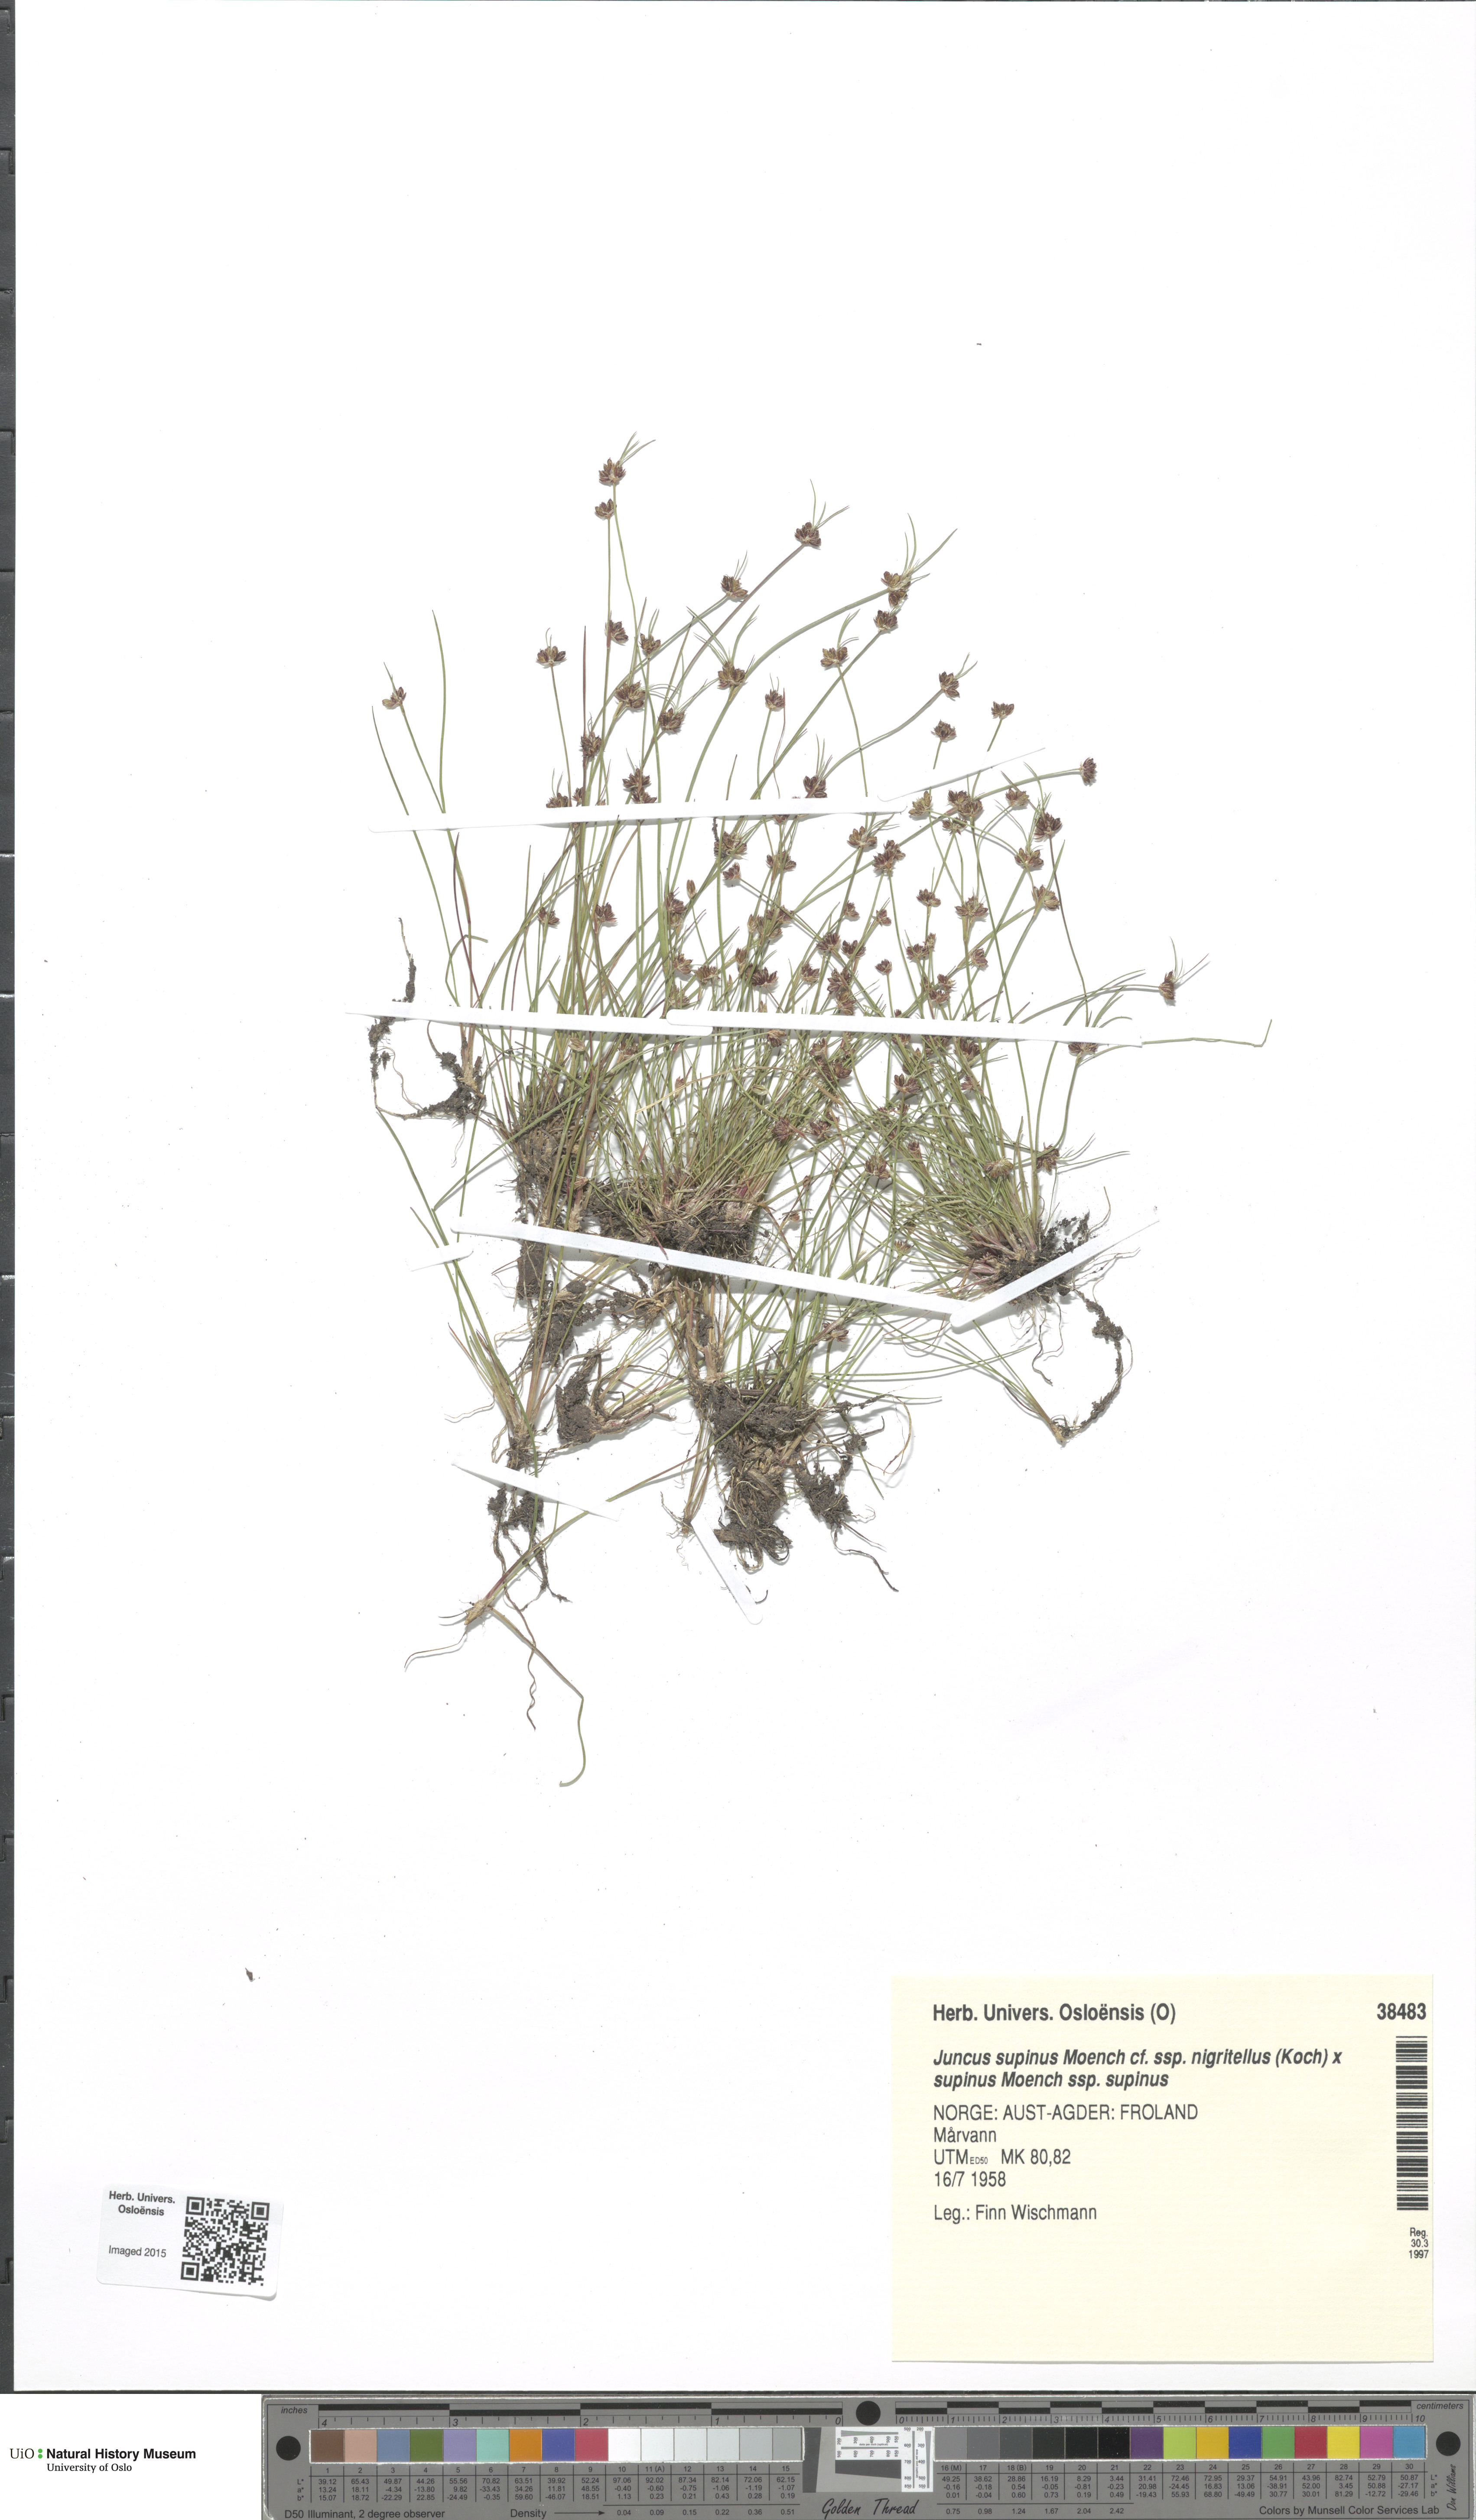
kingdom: Plantae
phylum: Tracheophyta
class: Liliopsida
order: Poales
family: Juncaceae
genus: Juncus
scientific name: Juncus
